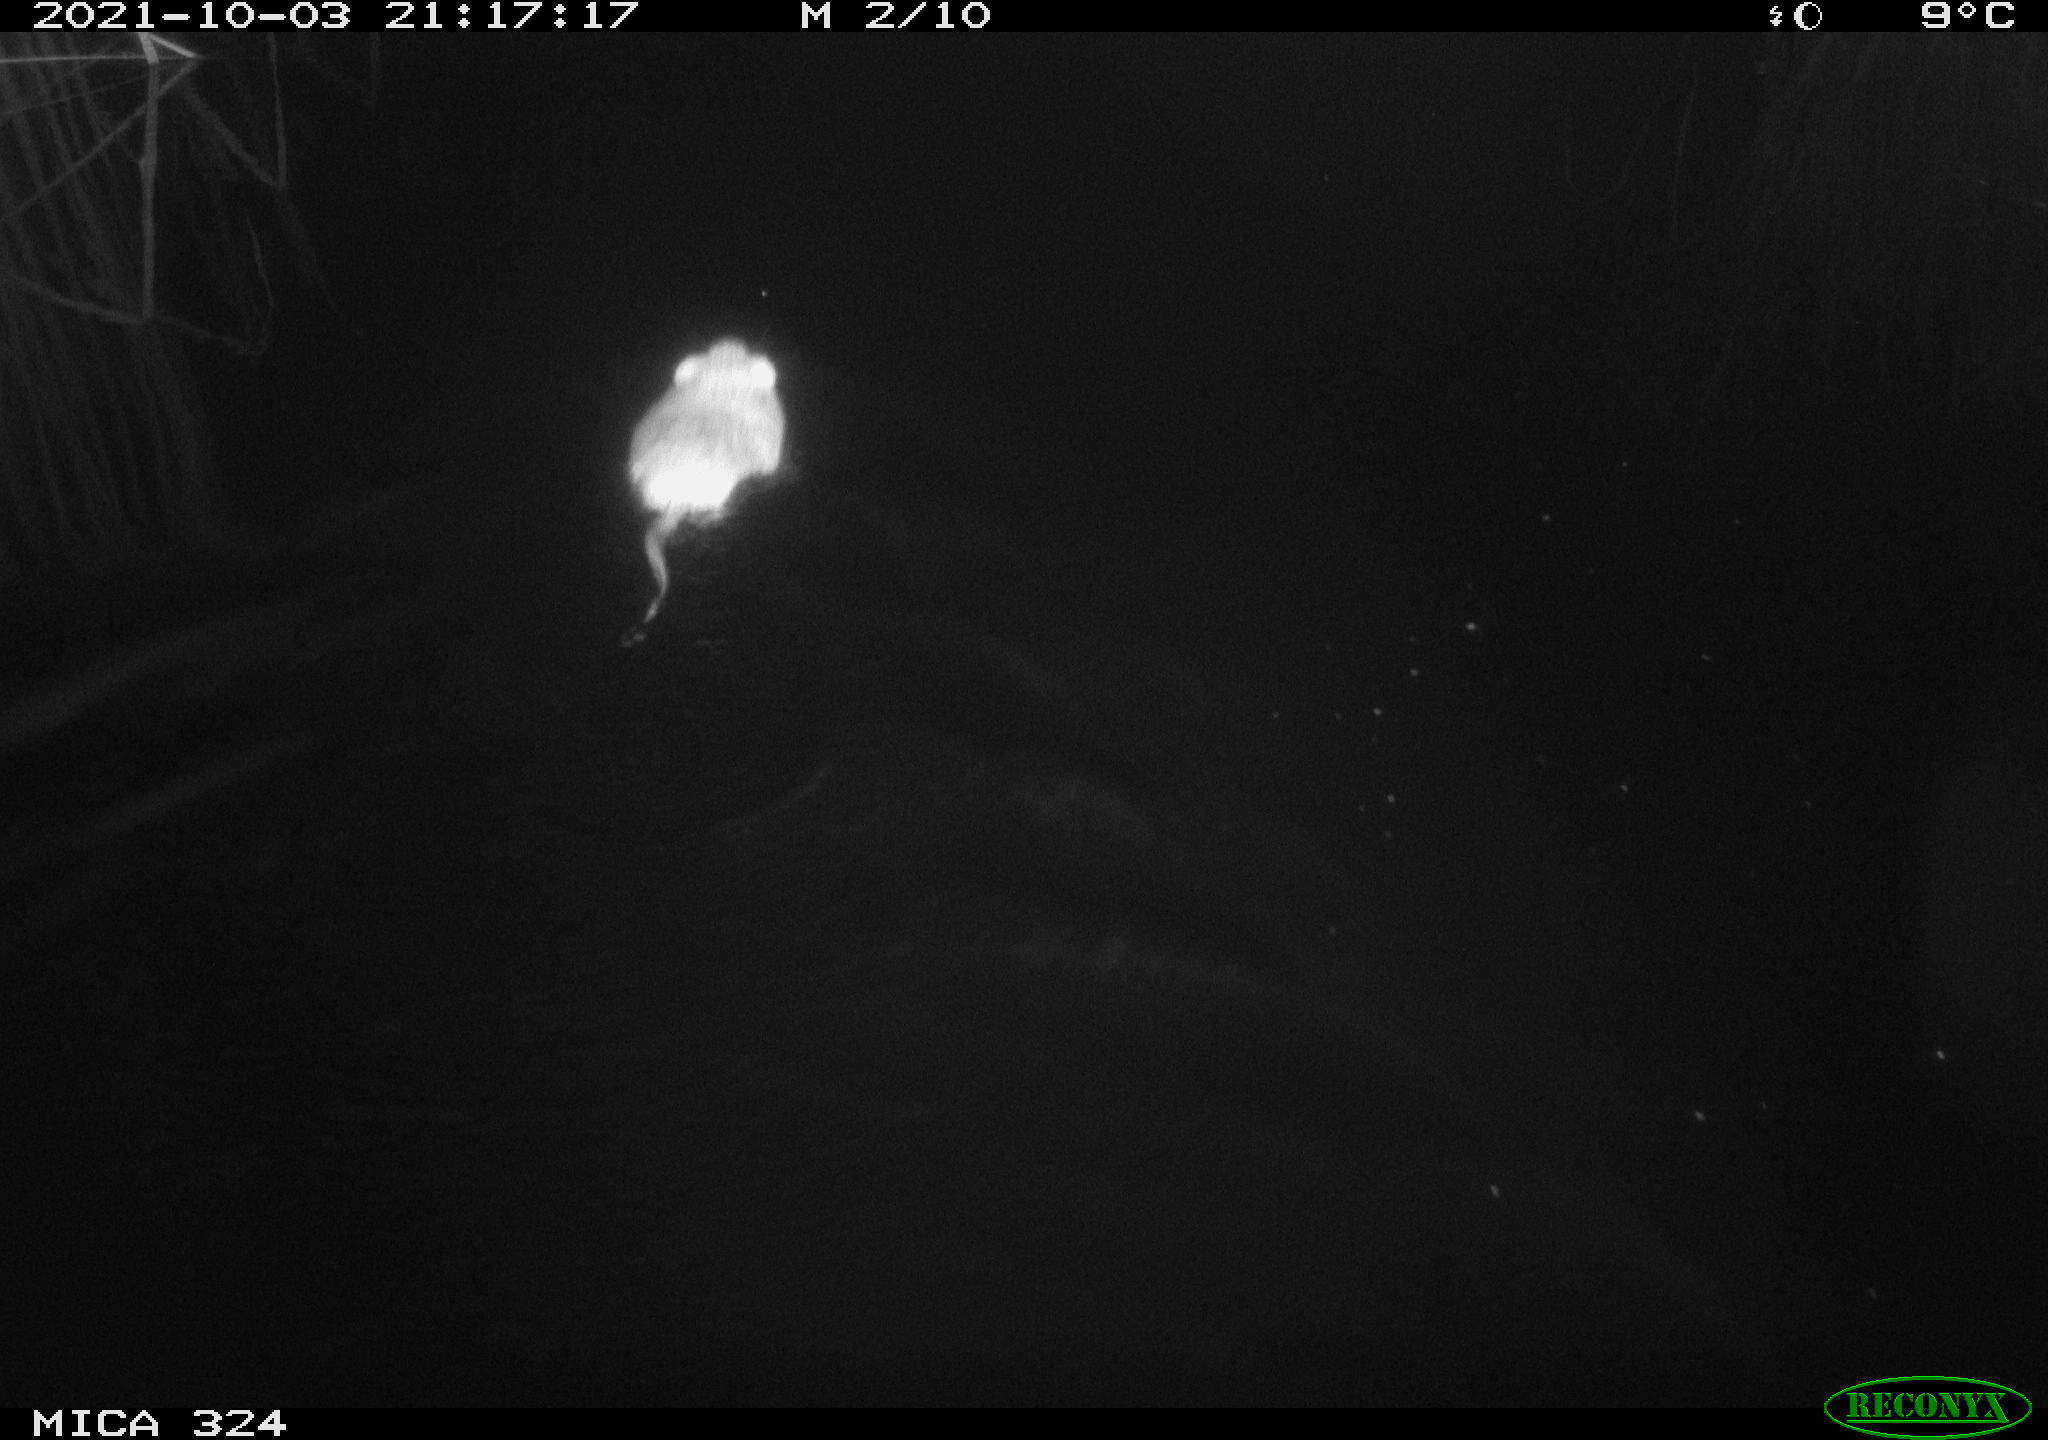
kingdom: Animalia
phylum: Chordata
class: Mammalia
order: Rodentia
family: Cricetidae
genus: Ondatra
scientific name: Ondatra zibethicus
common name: Muskrat
